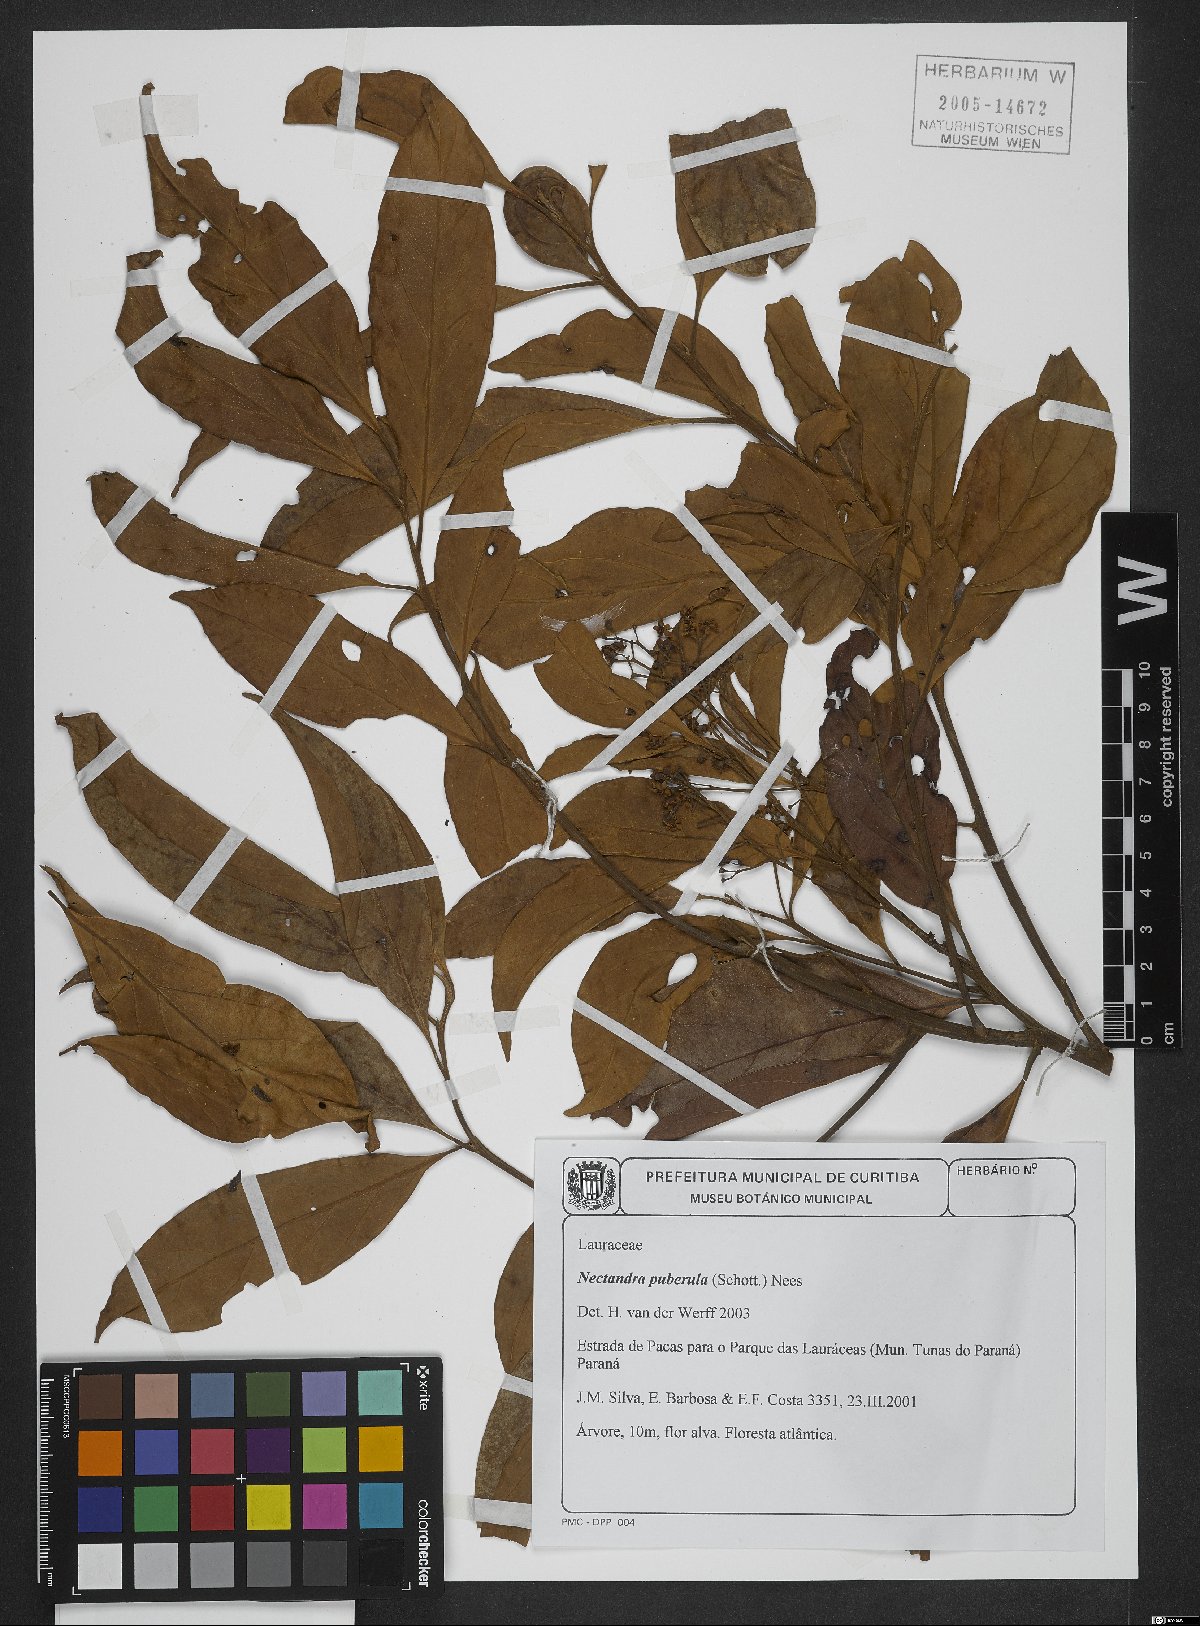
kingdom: Plantae
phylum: Tracheophyta
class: Magnoliopsida
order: Laurales
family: Lauraceae
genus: Nectandra
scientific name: Nectandra puberula
